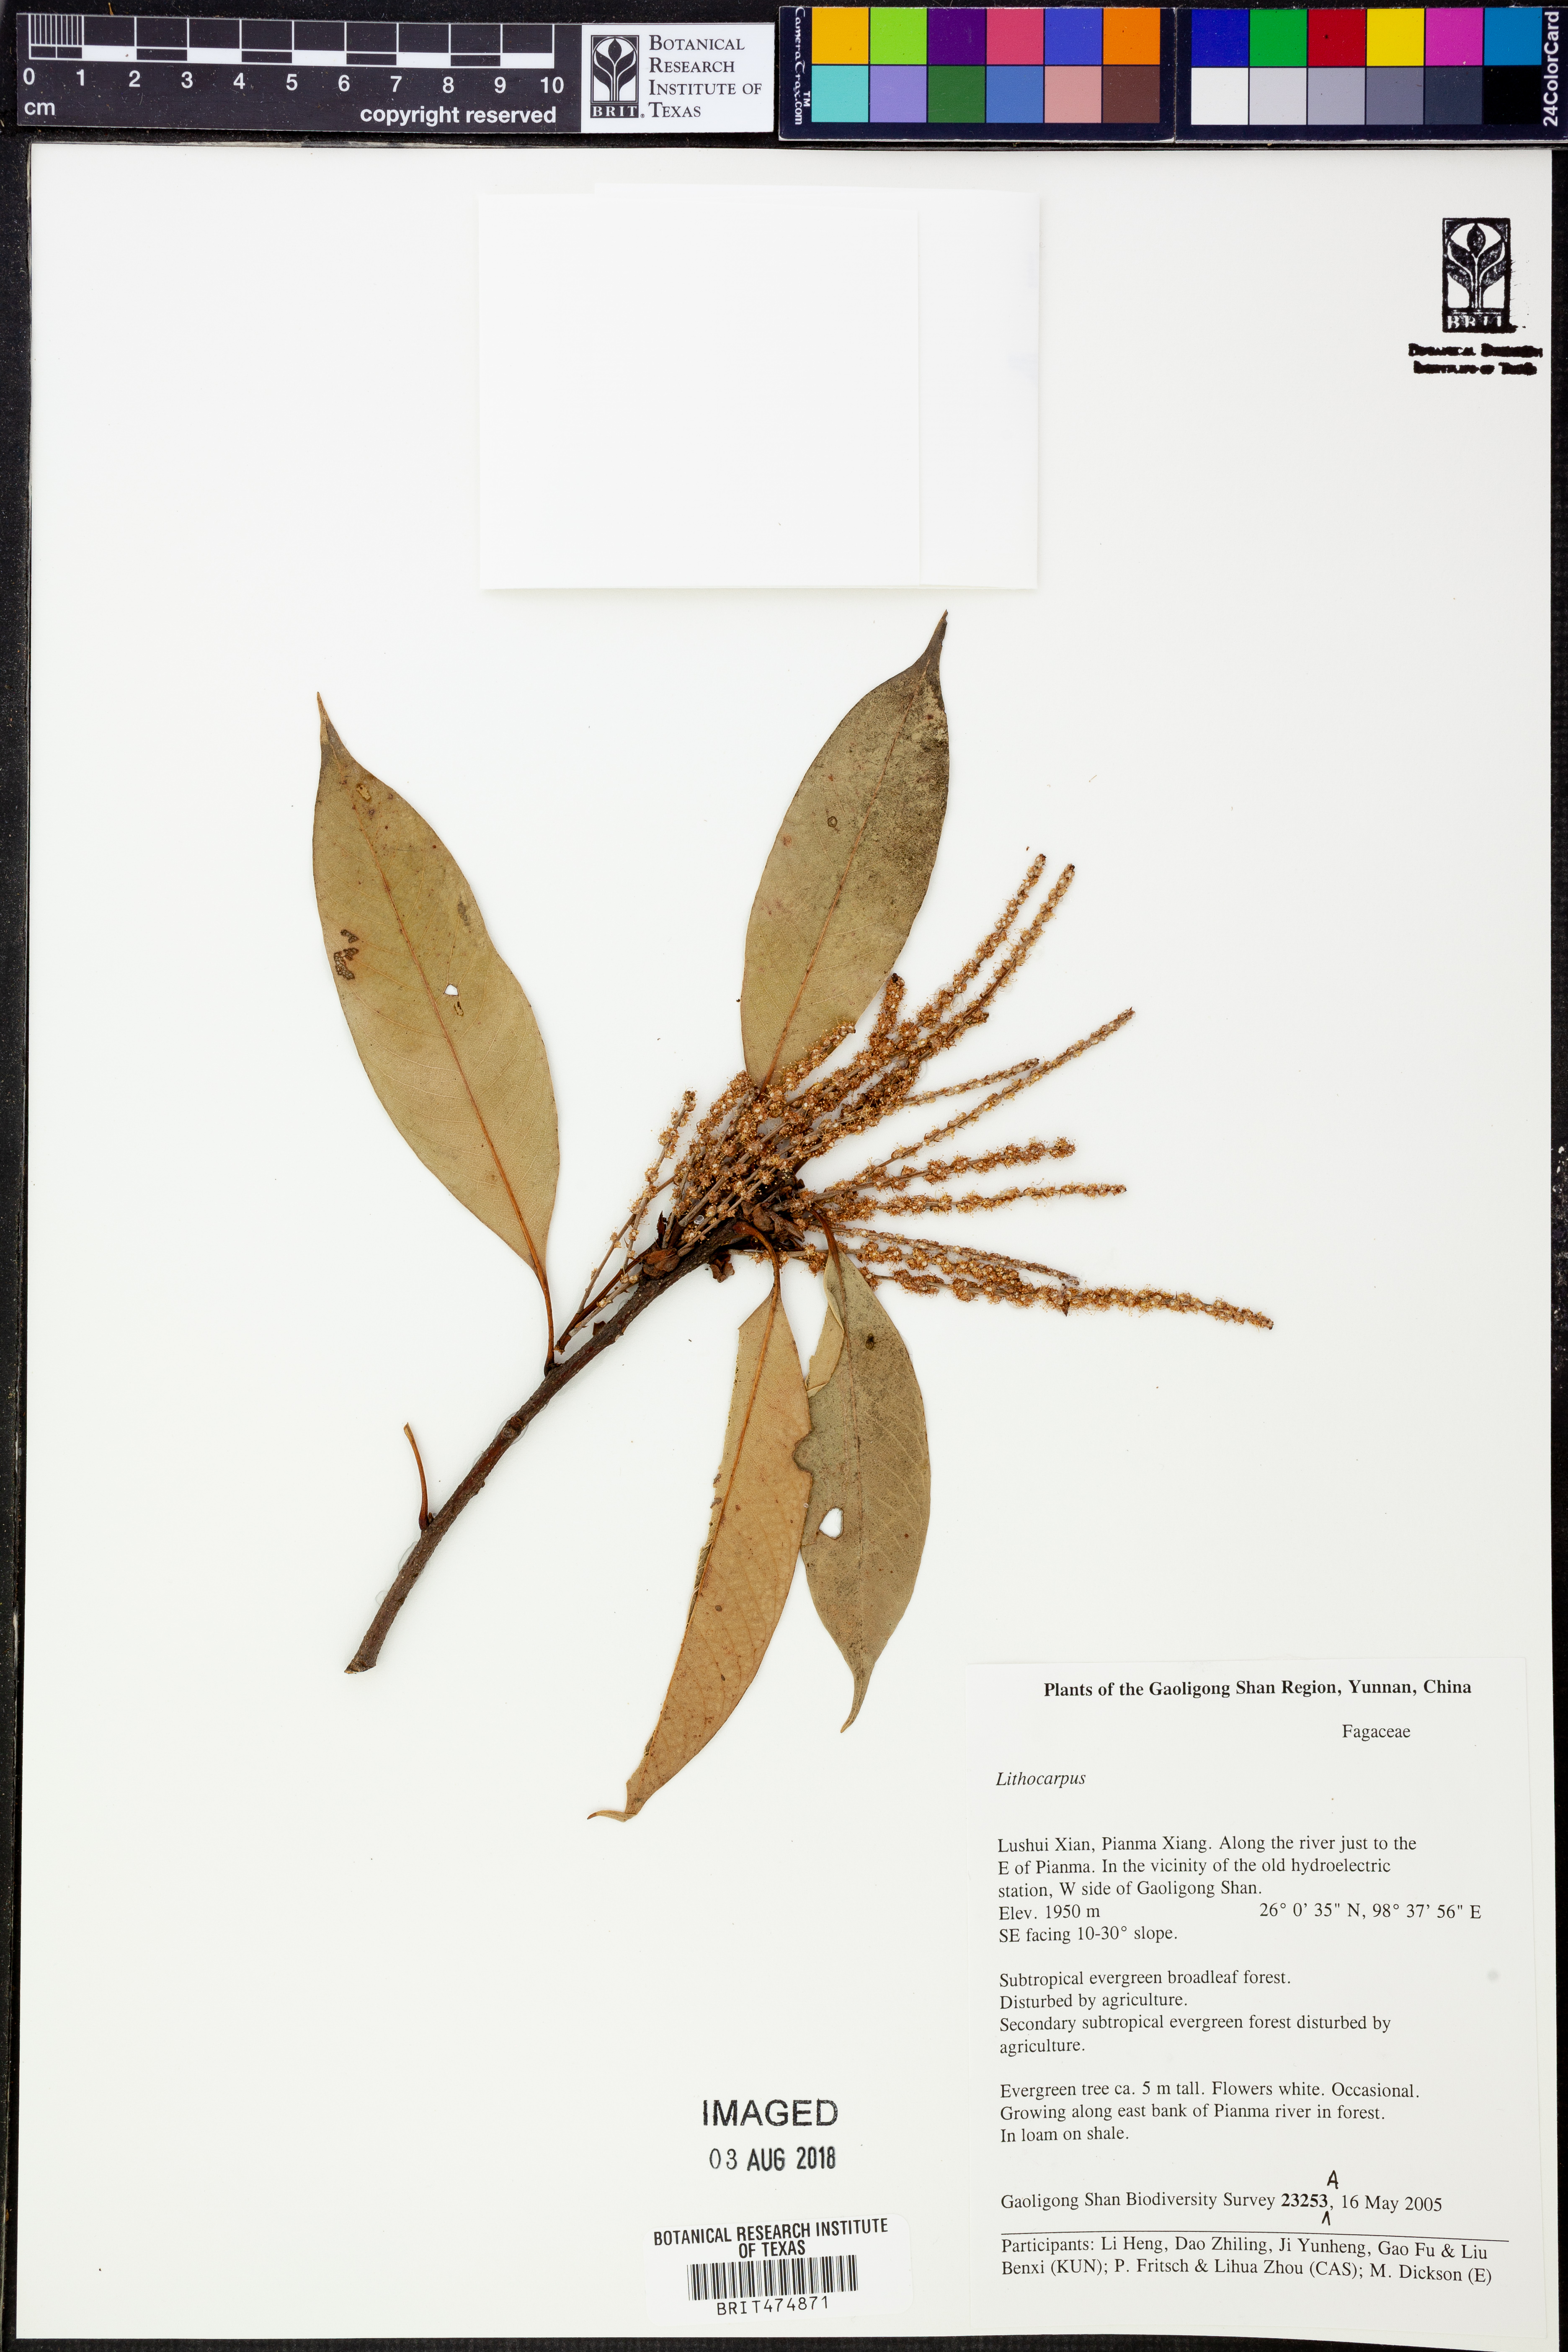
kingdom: Plantae
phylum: Tracheophyta
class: Polypodiopsida
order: Polypodiales
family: Polypodiaceae
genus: Lepisorus
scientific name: Lepisorus nudus
